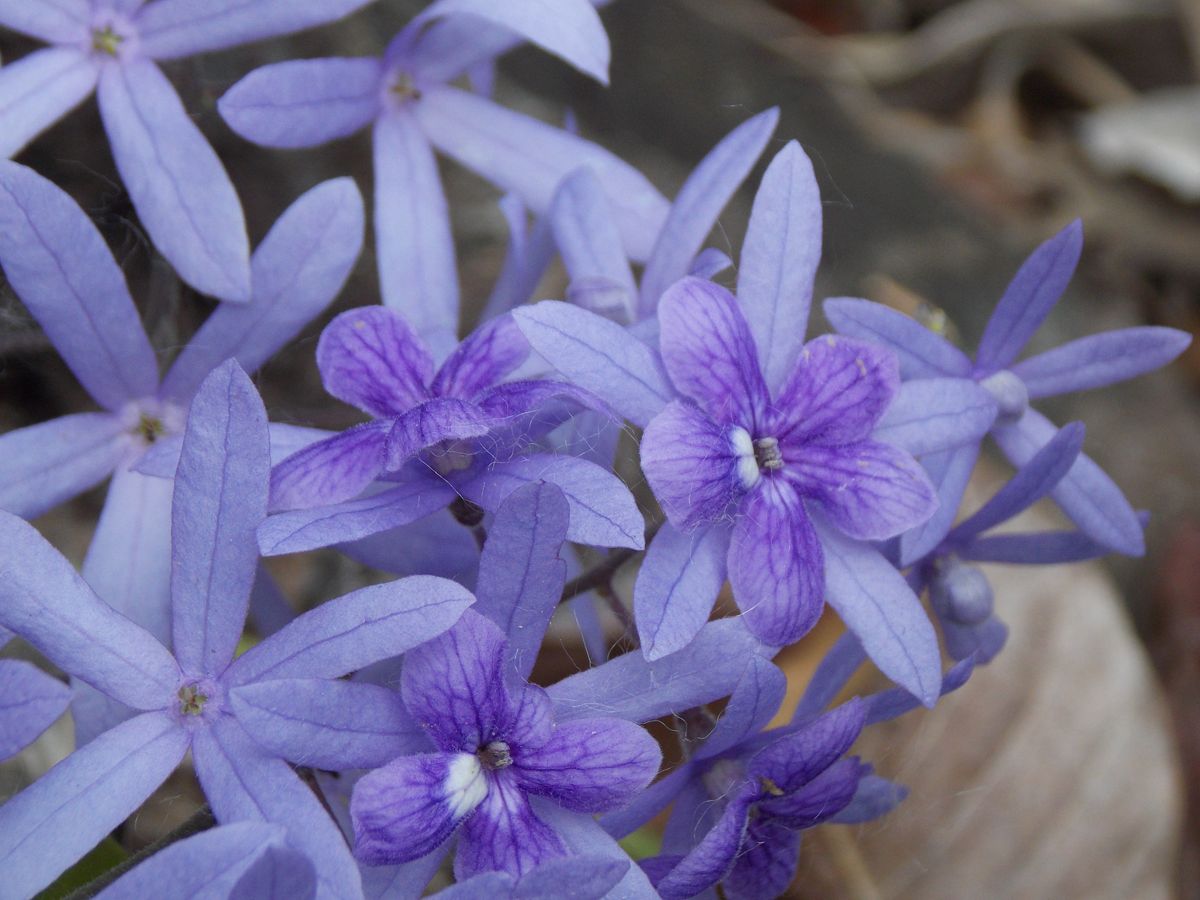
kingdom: Plantae
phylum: Tracheophyta
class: Magnoliopsida
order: Lamiales
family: Verbenaceae
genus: Petrea
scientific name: Petrea volubilis
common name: Queen's-wreath
